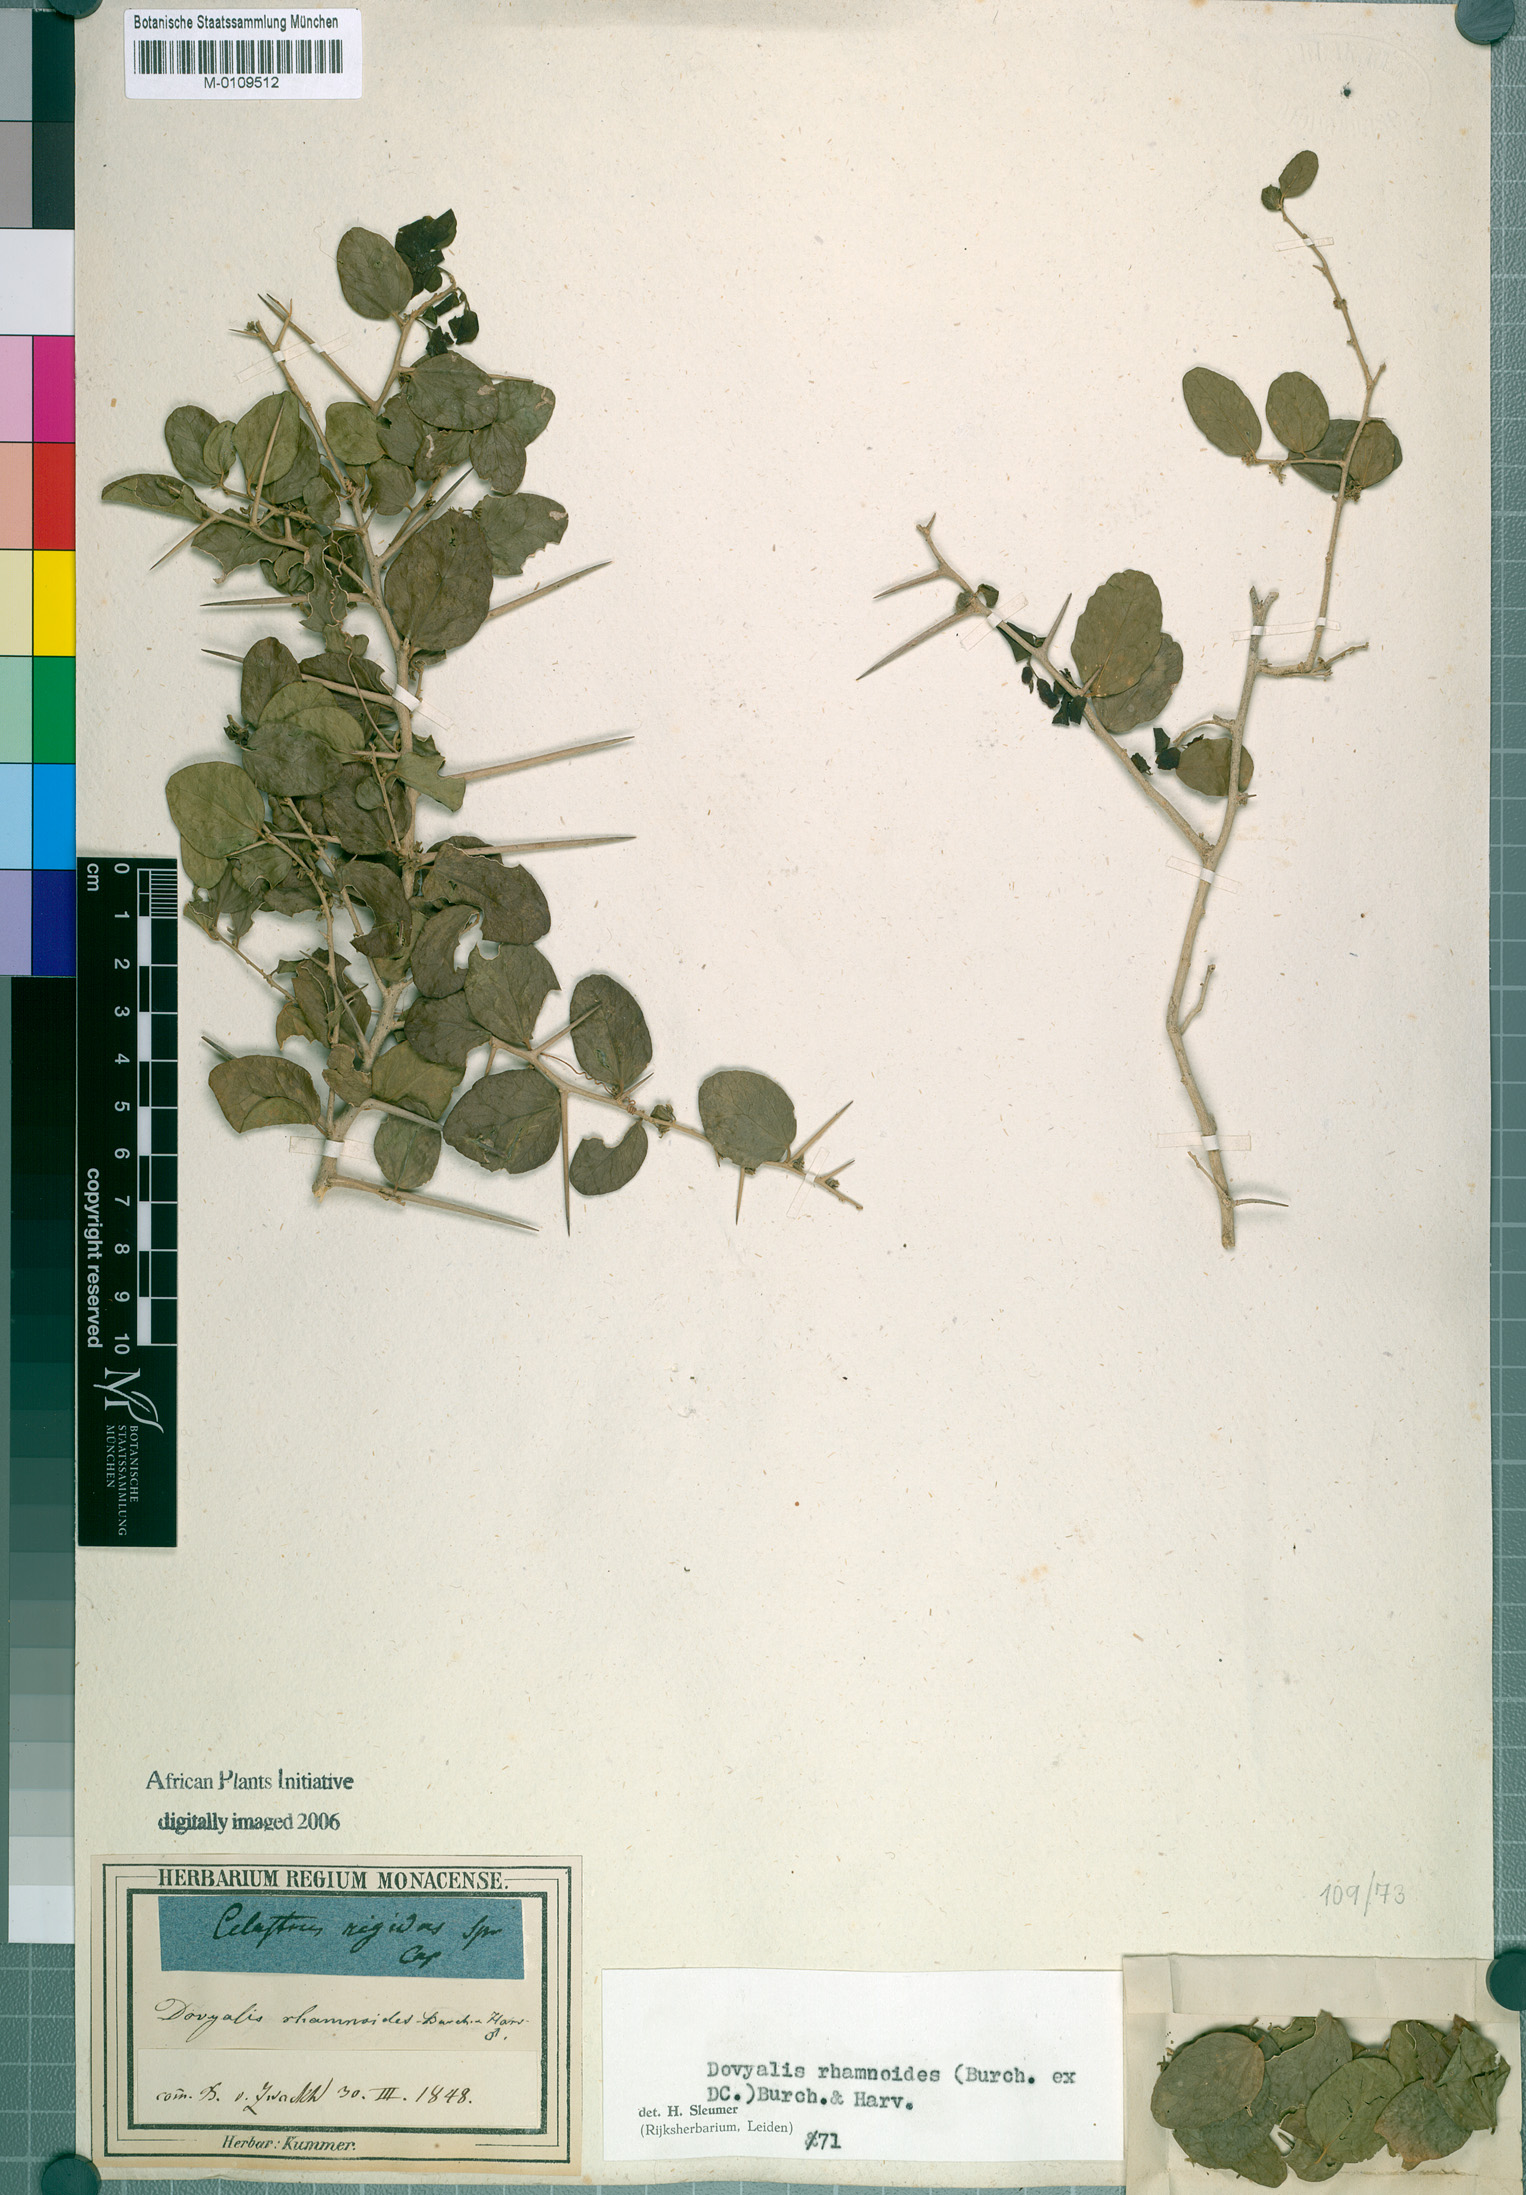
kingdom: Plantae
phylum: Tracheophyta
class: Magnoliopsida
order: Malpighiales
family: Salicaceae
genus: Dovyalis
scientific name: Dovyalis rhamnoides
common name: Sourberry
